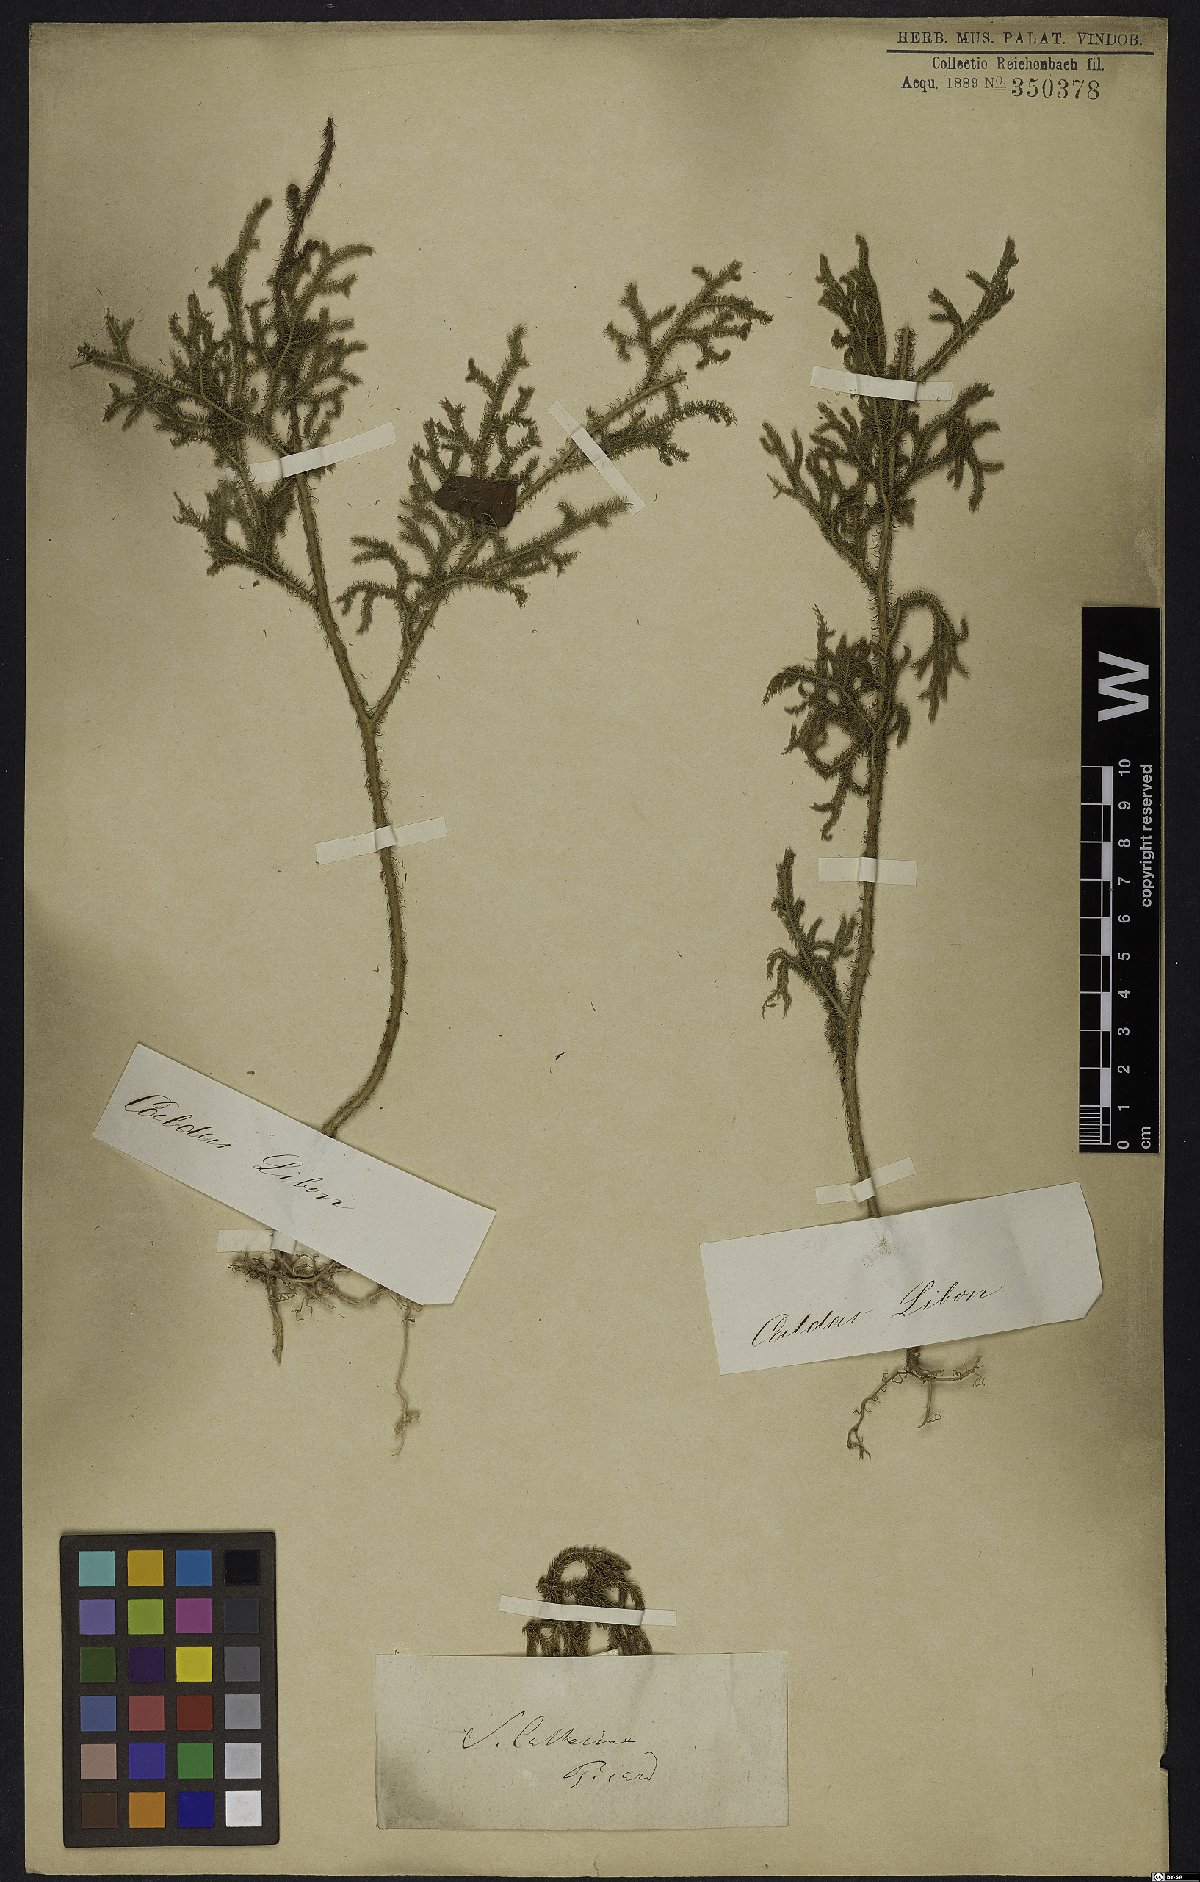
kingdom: Plantae
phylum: Tracheophyta
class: Lycopodiopsida
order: Lycopodiales
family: Lycopodiaceae
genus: Lycopodium
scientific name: Lycopodium
